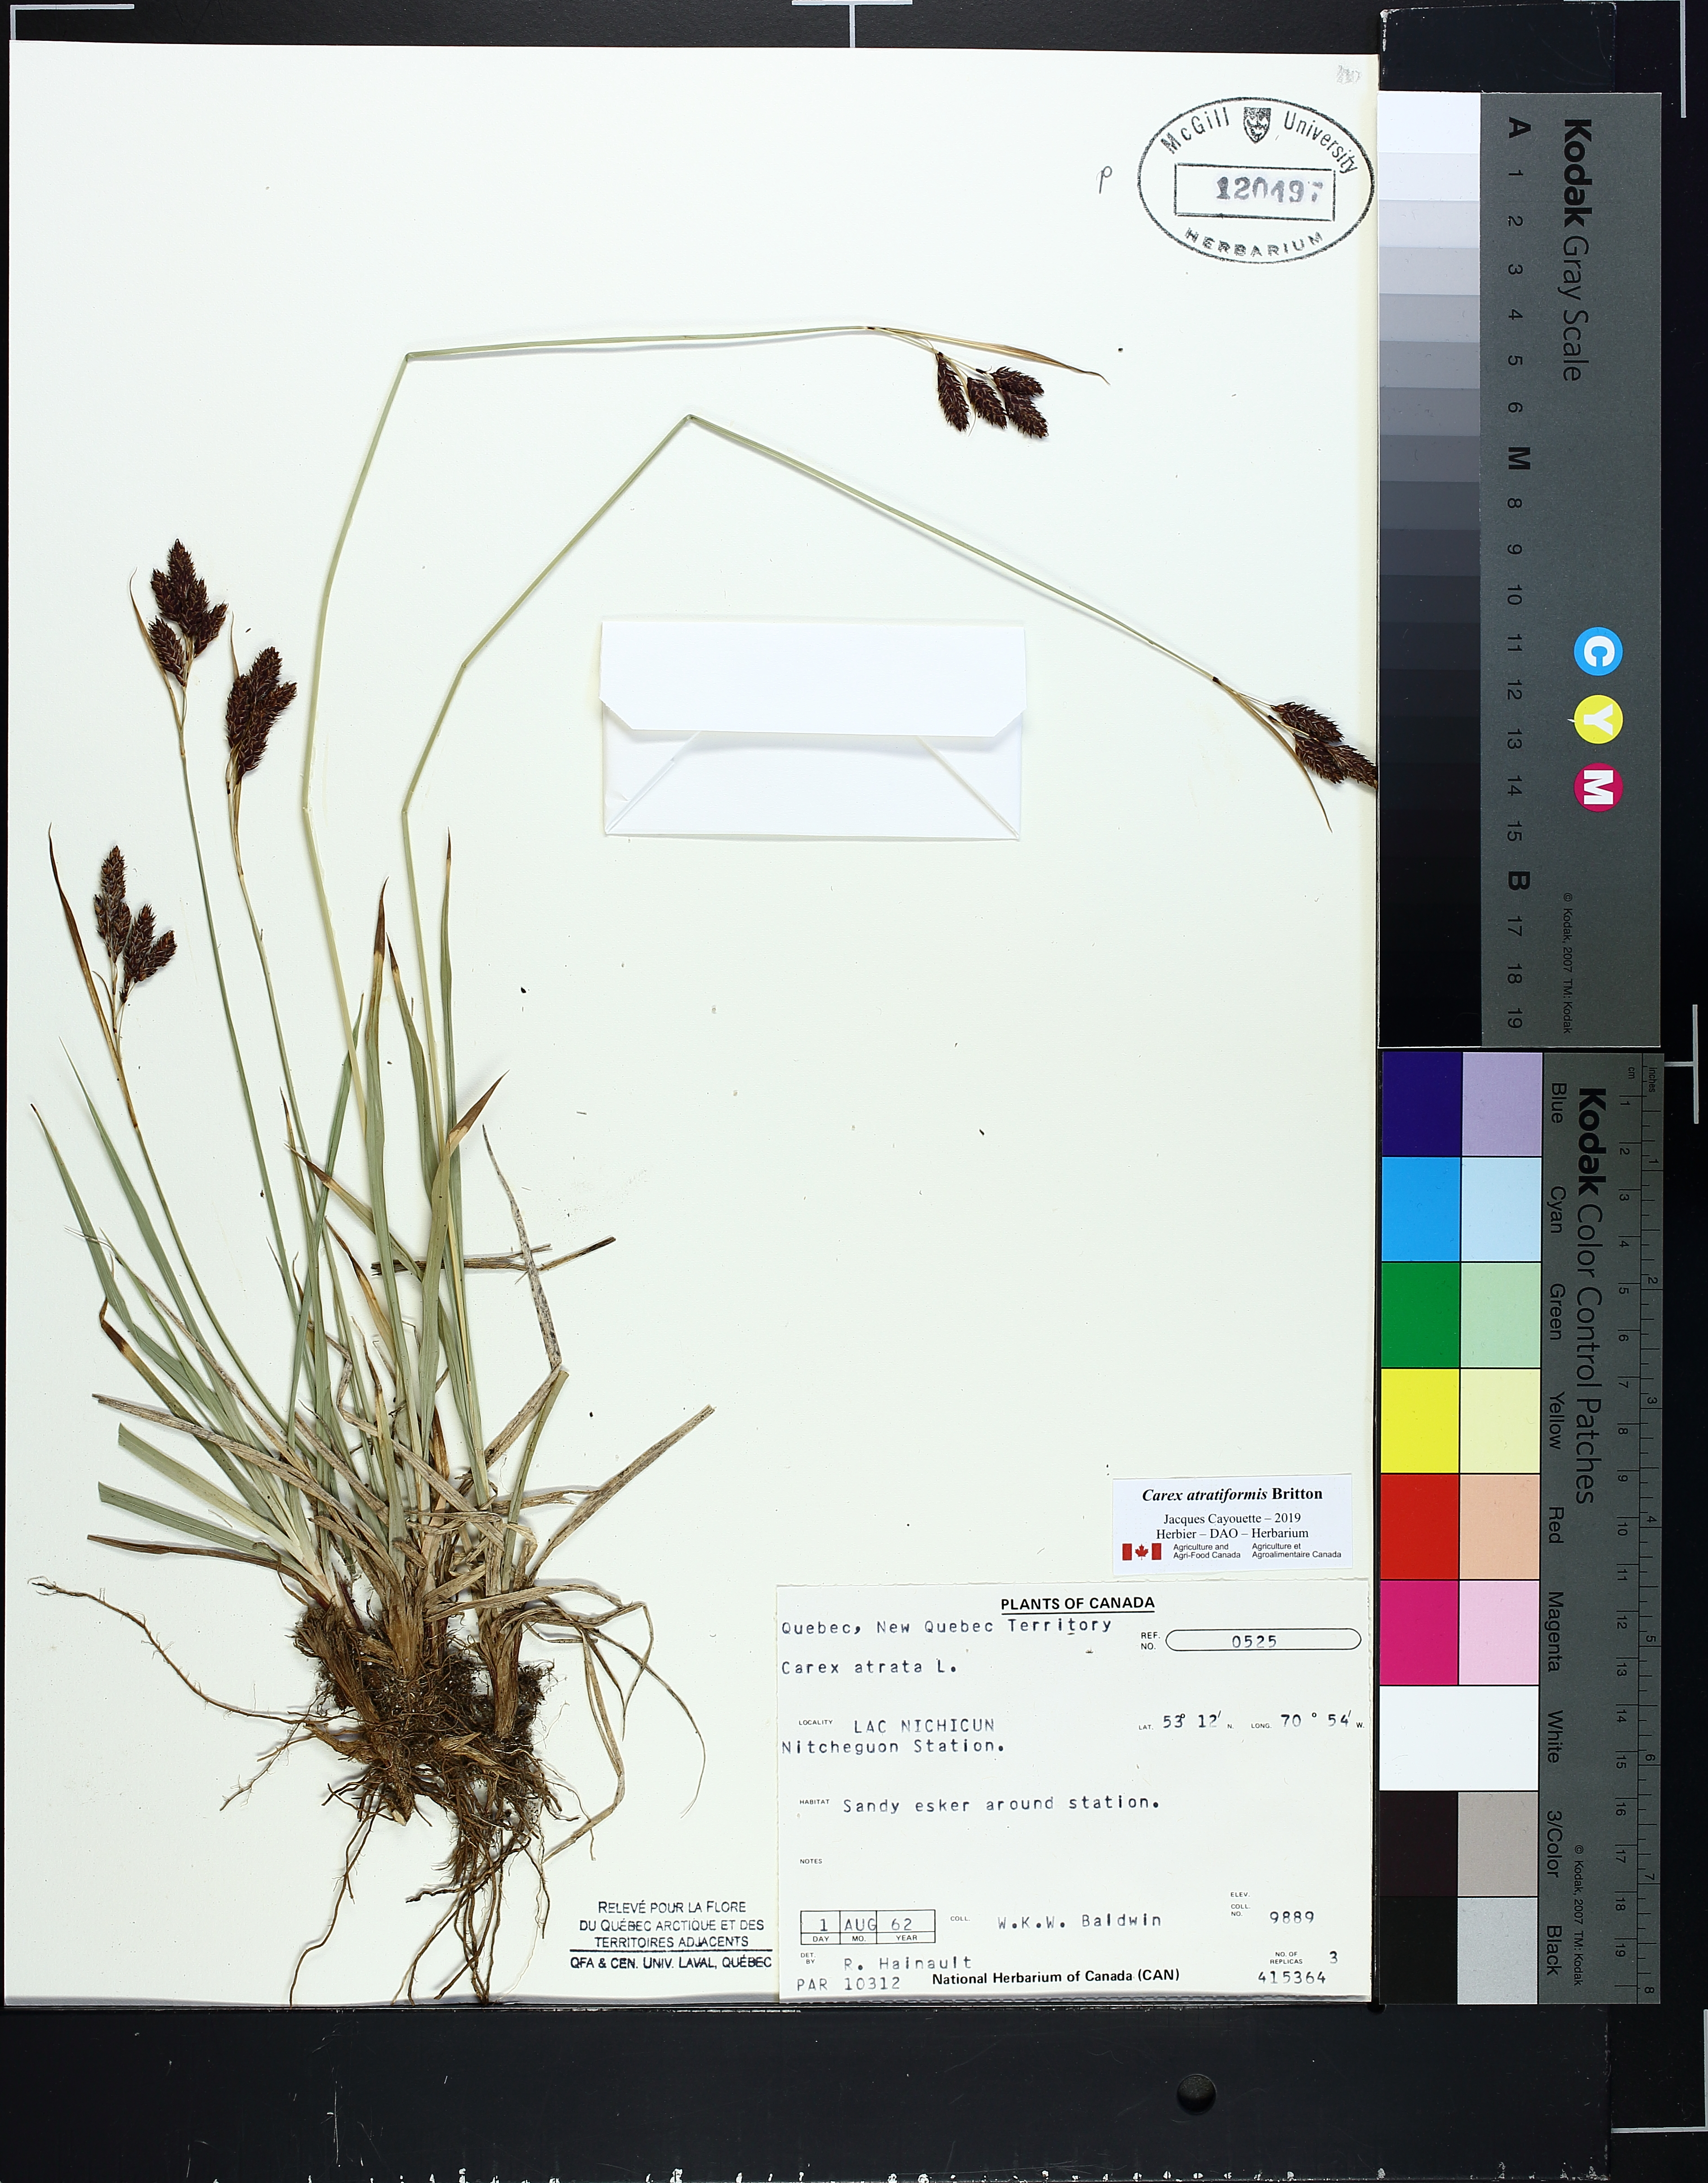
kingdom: Plantae
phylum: Tracheophyta
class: Liliopsida
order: Poales
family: Cyperaceae
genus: Carex
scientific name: Carex atratiformis
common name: Black sedge
